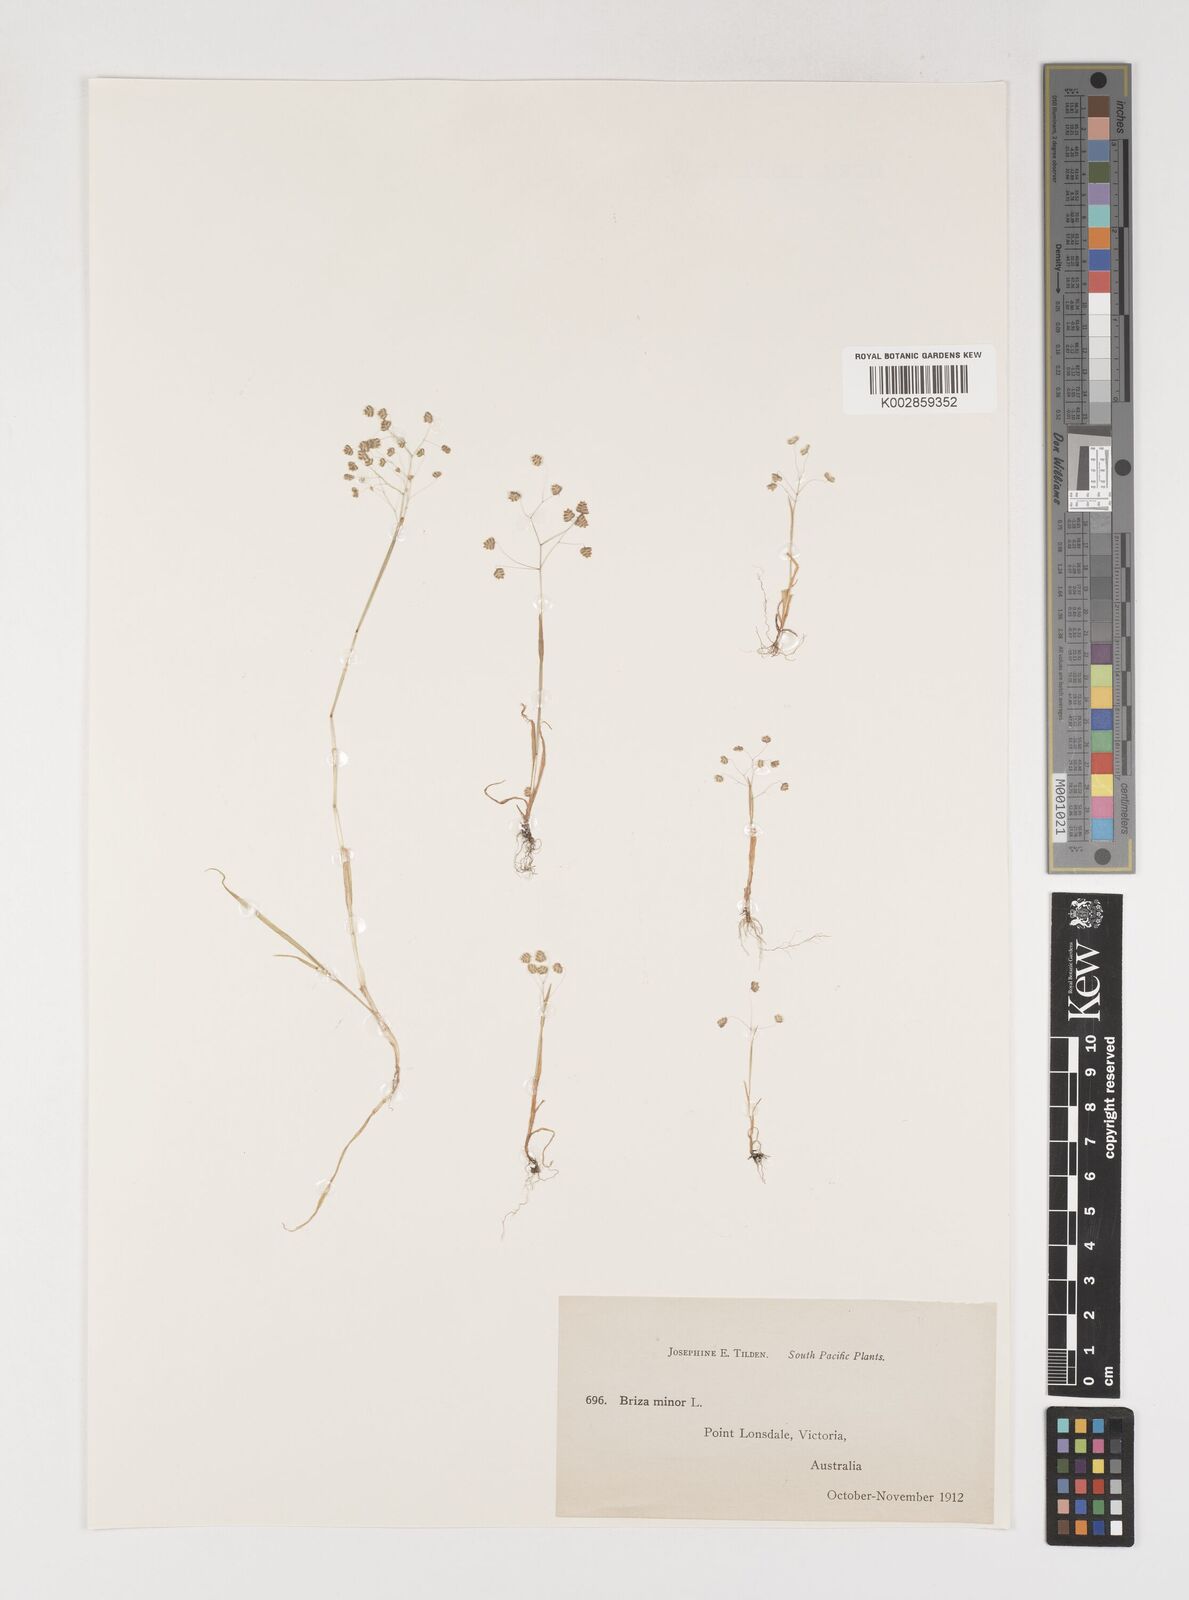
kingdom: Plantae
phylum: Tracheophyta
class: Liliopsida
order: Poales
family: Poaceae
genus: Briza
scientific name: Briza minor
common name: Lesser quaking-grass
